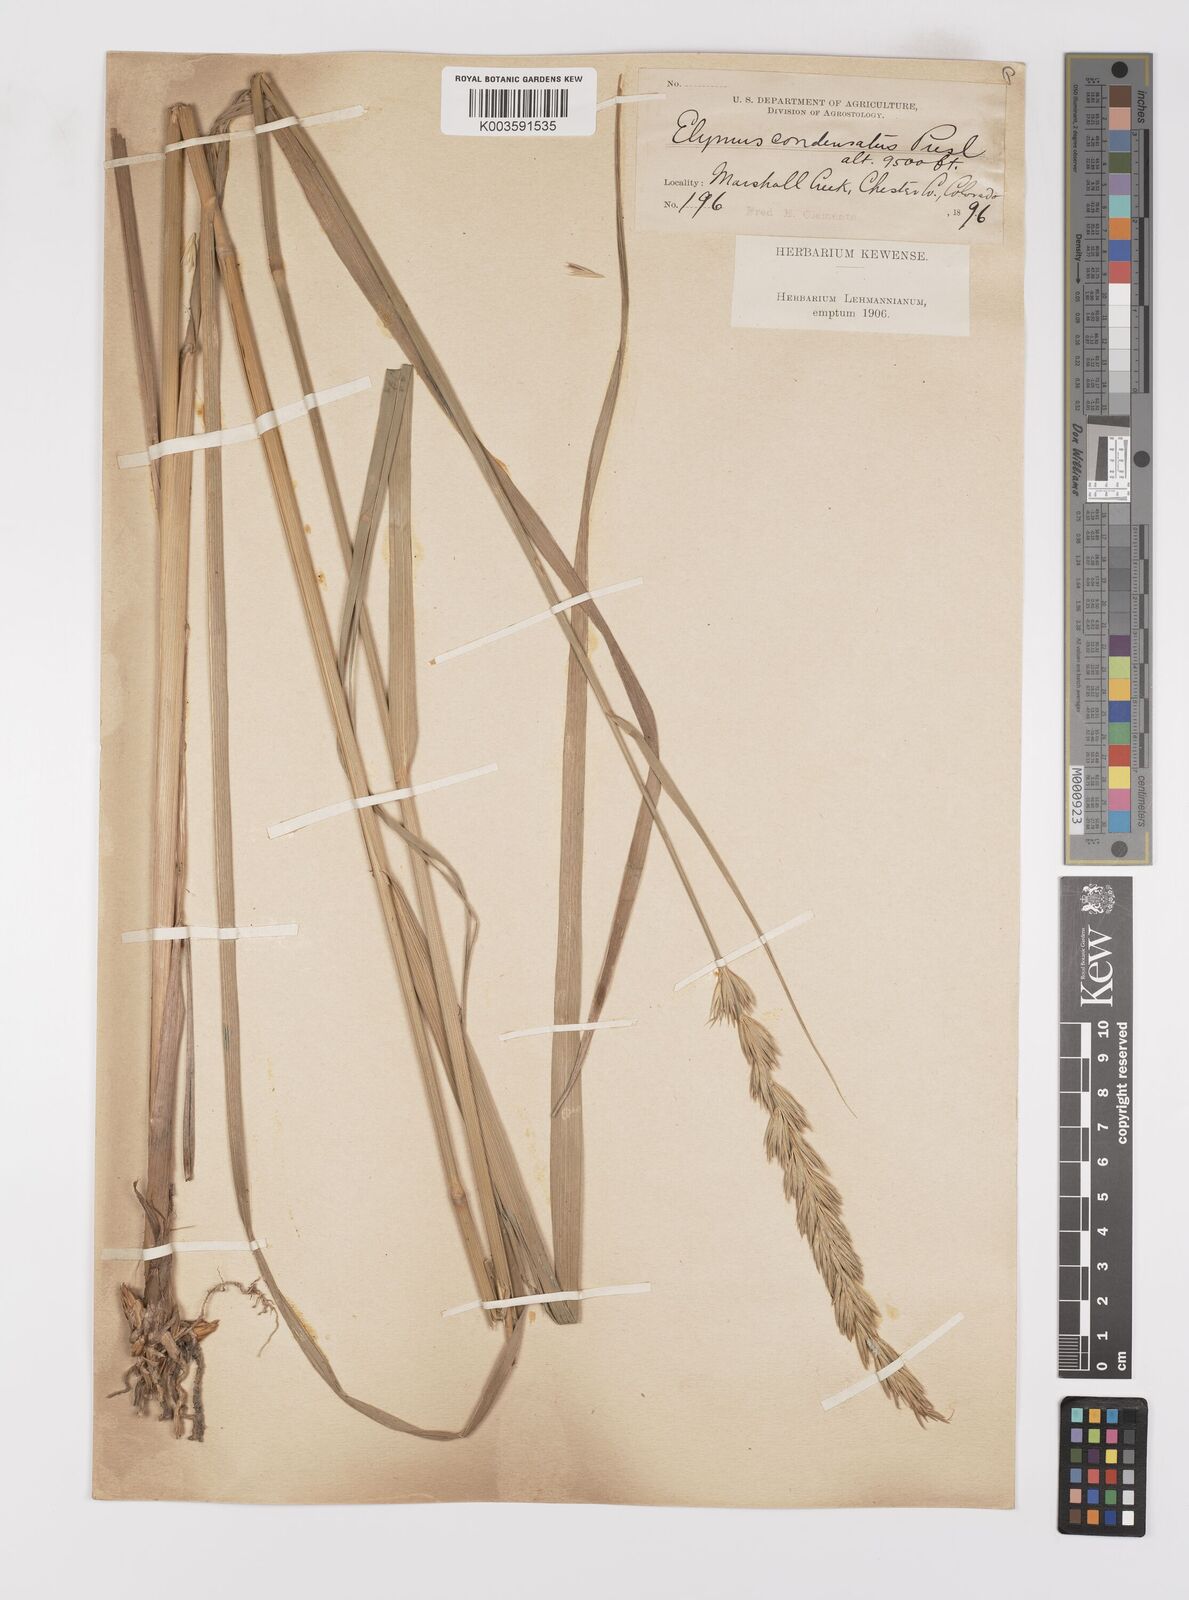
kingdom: Plantae
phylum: Tracheophyta
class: Liliopsida
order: Poales
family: Poaceae
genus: Leymus
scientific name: Leymus condensatus
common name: Giant wild rye
